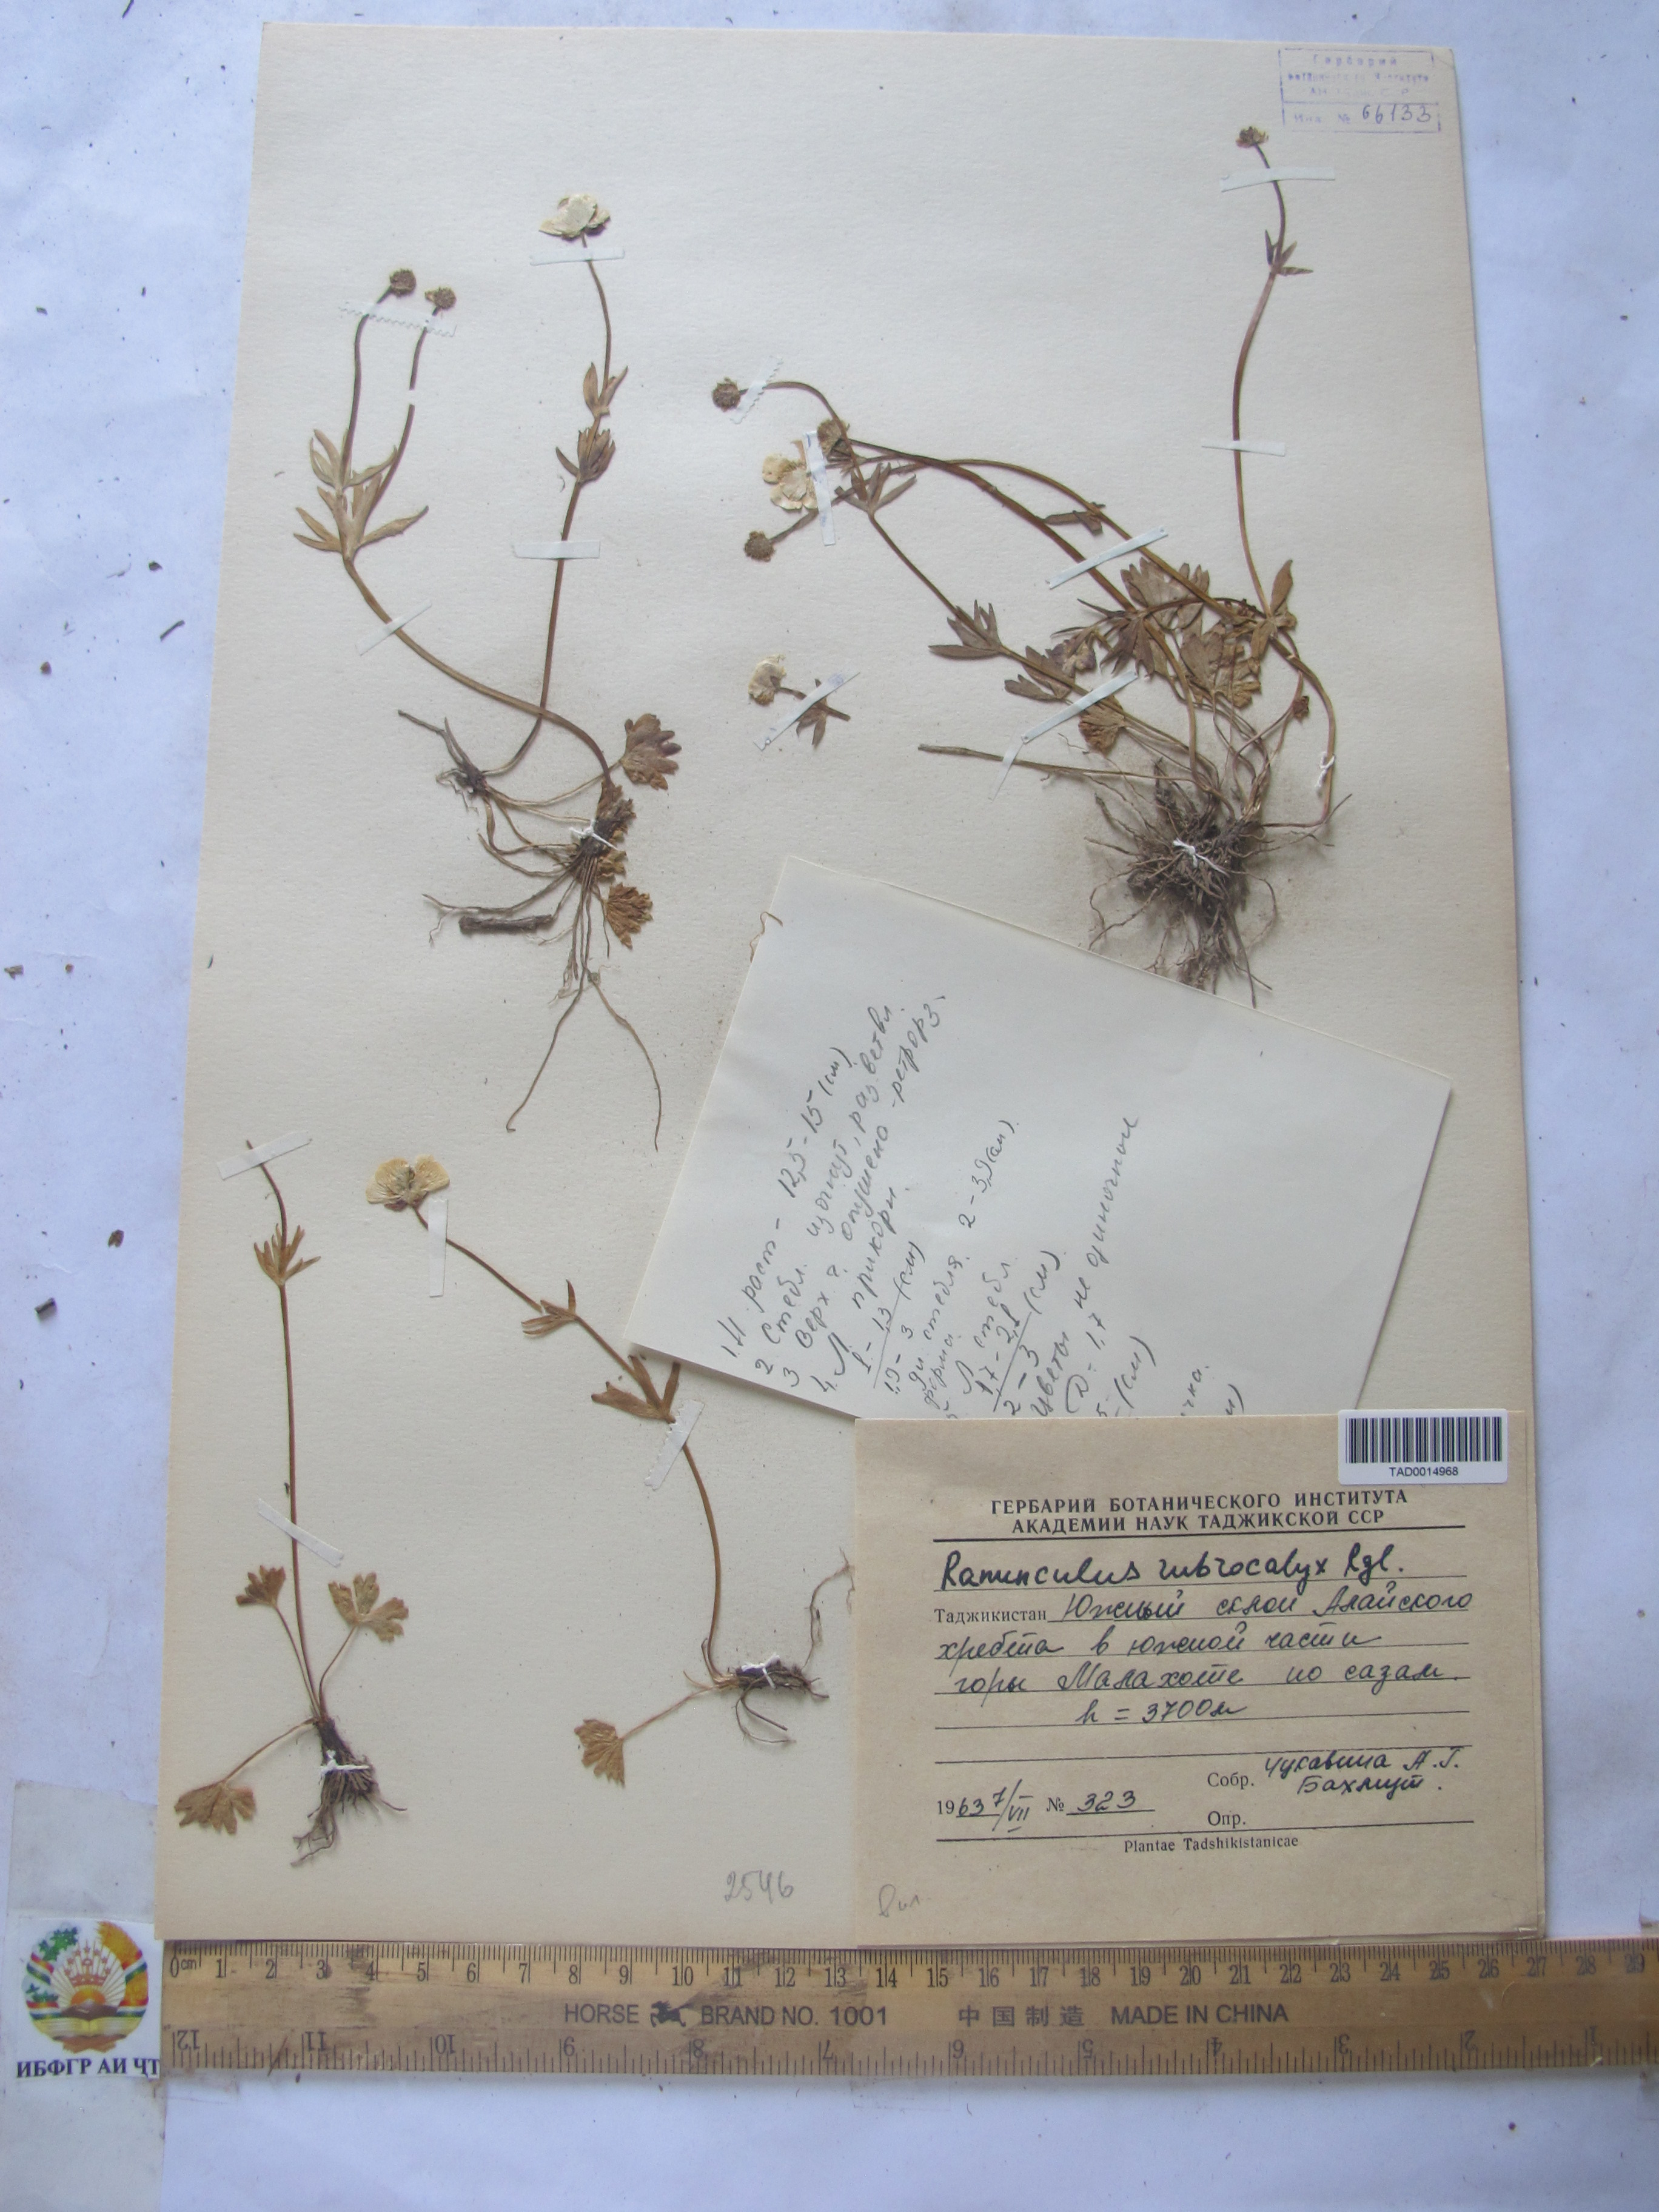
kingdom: Plantae
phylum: Tracheophyta
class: Magnoliopsida
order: Ranunculales
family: Ranunculaceae
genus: Ranunculus
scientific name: Ranunculus rubrocalyx
